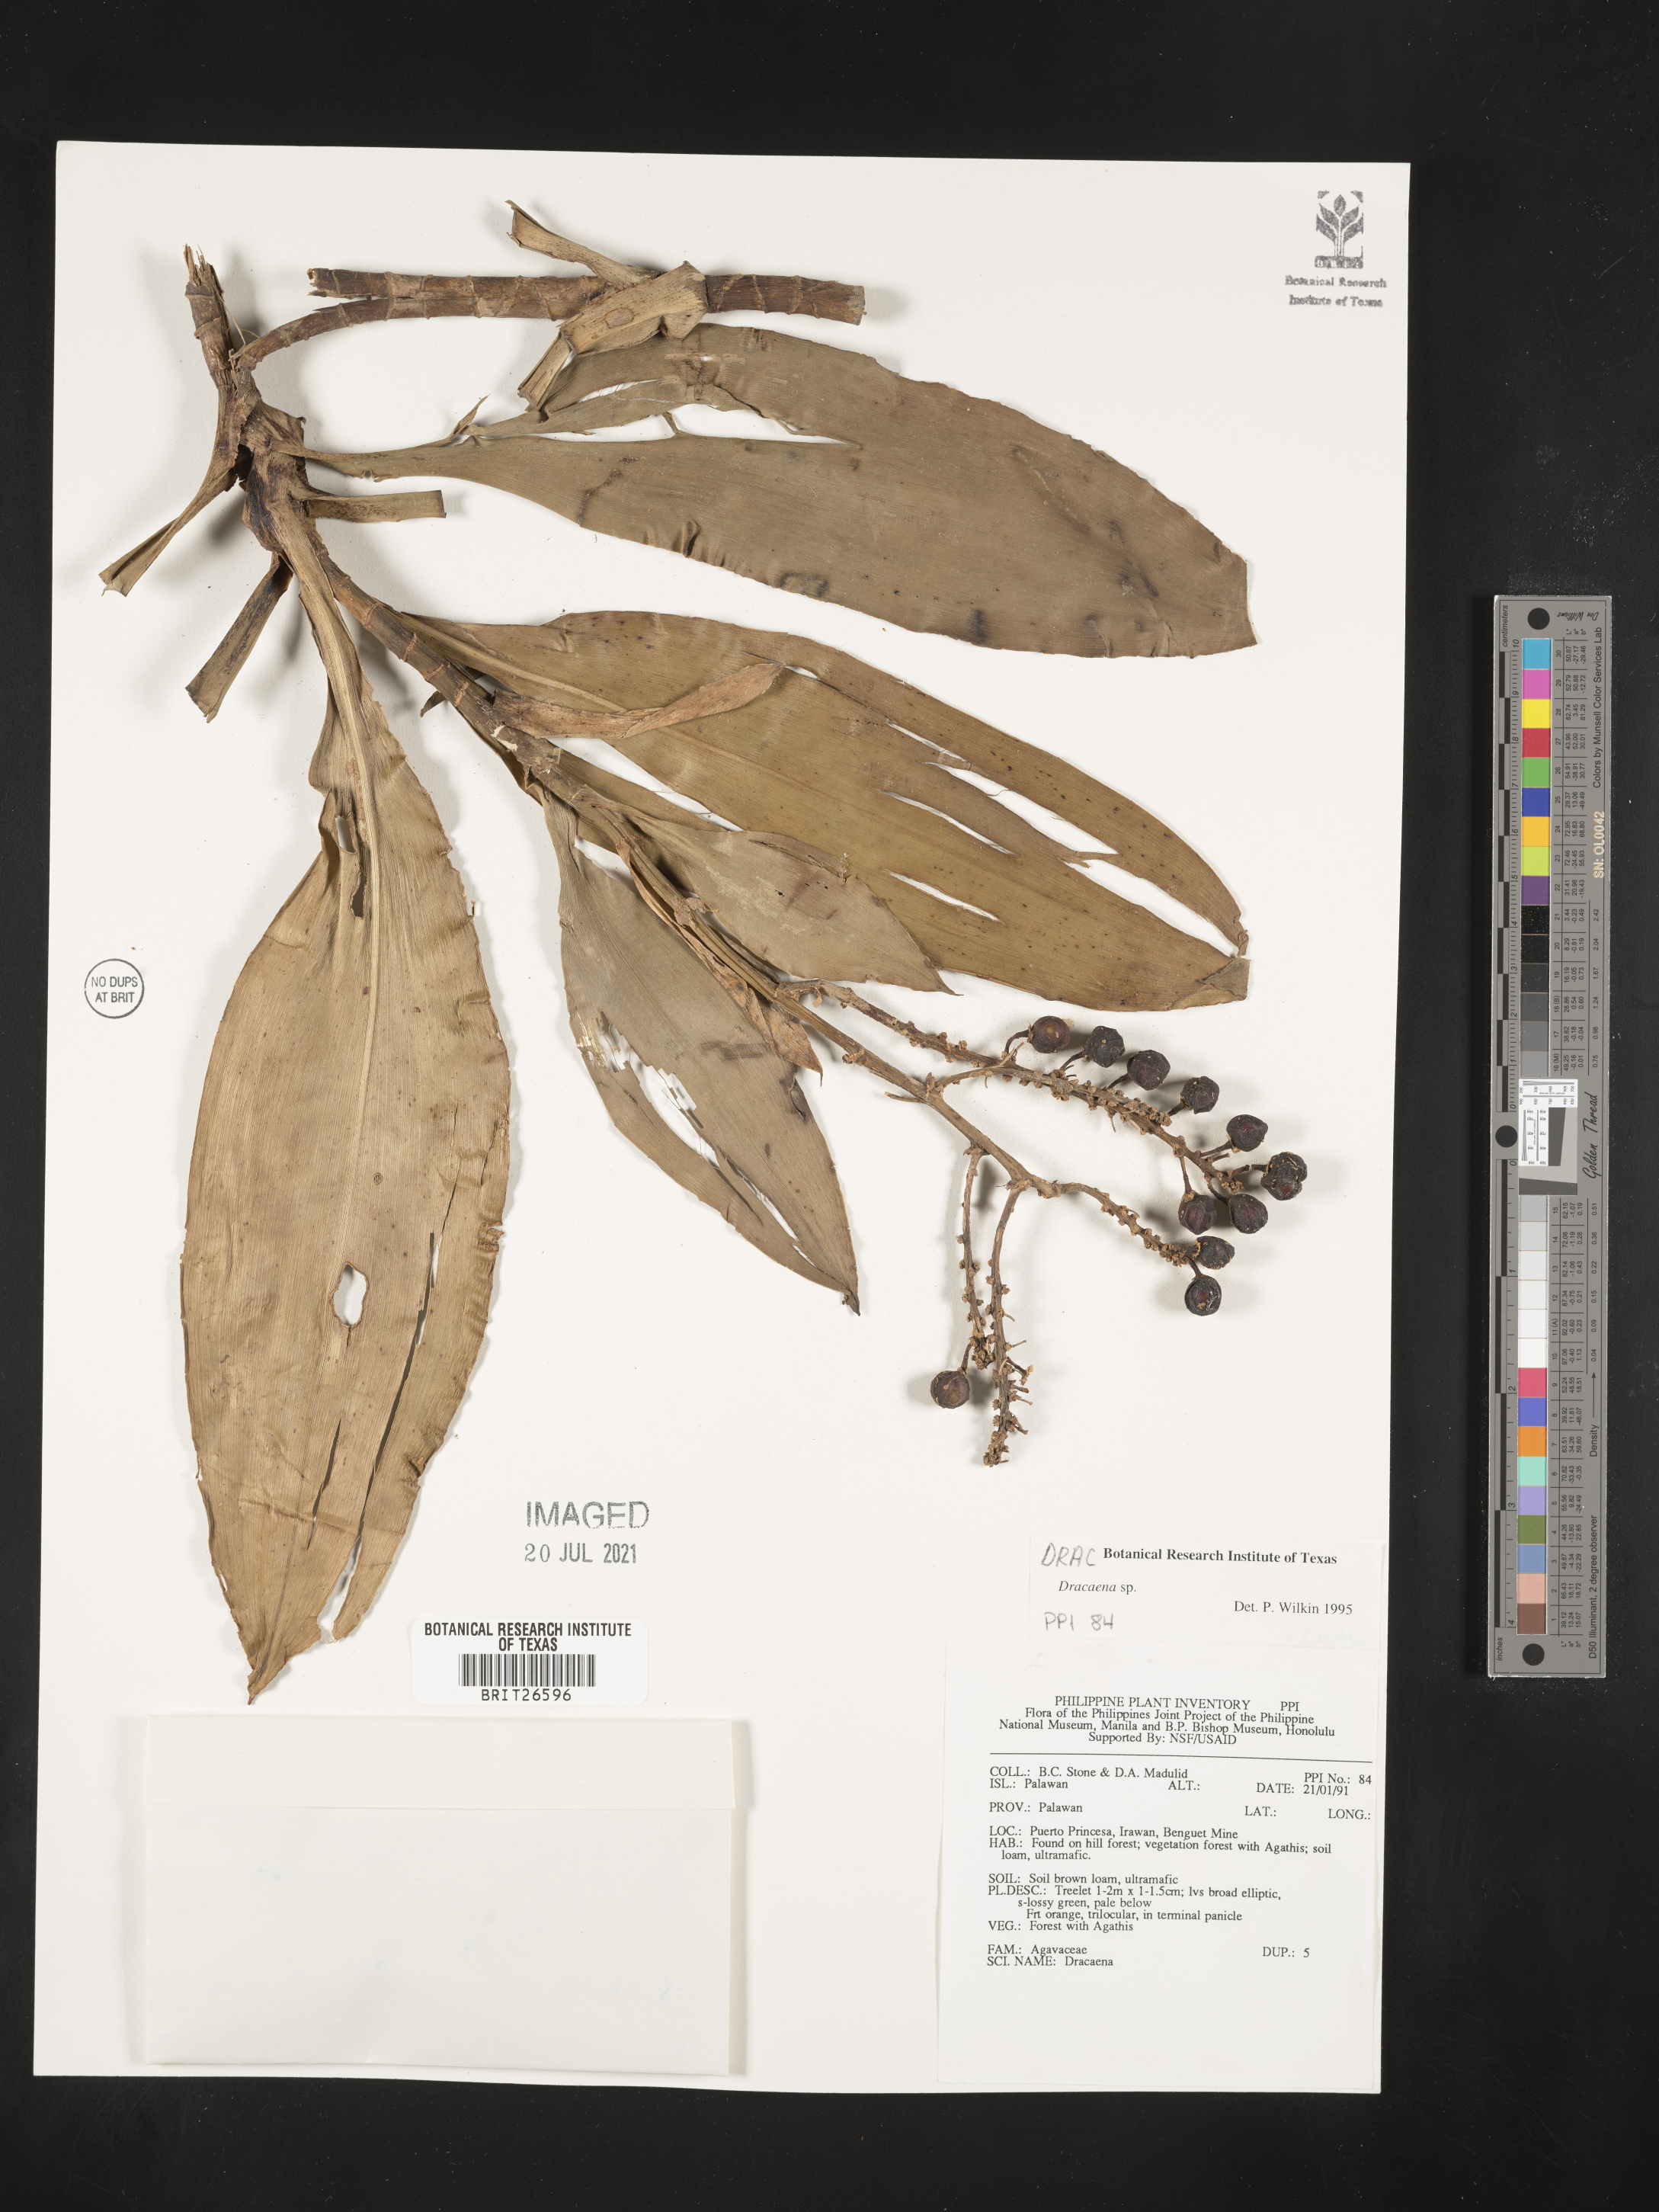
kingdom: Plantae
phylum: Tracheophyta
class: Liliopsida
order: Asparagales
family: Asparagaceae
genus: Dracaena
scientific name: Dracaena
